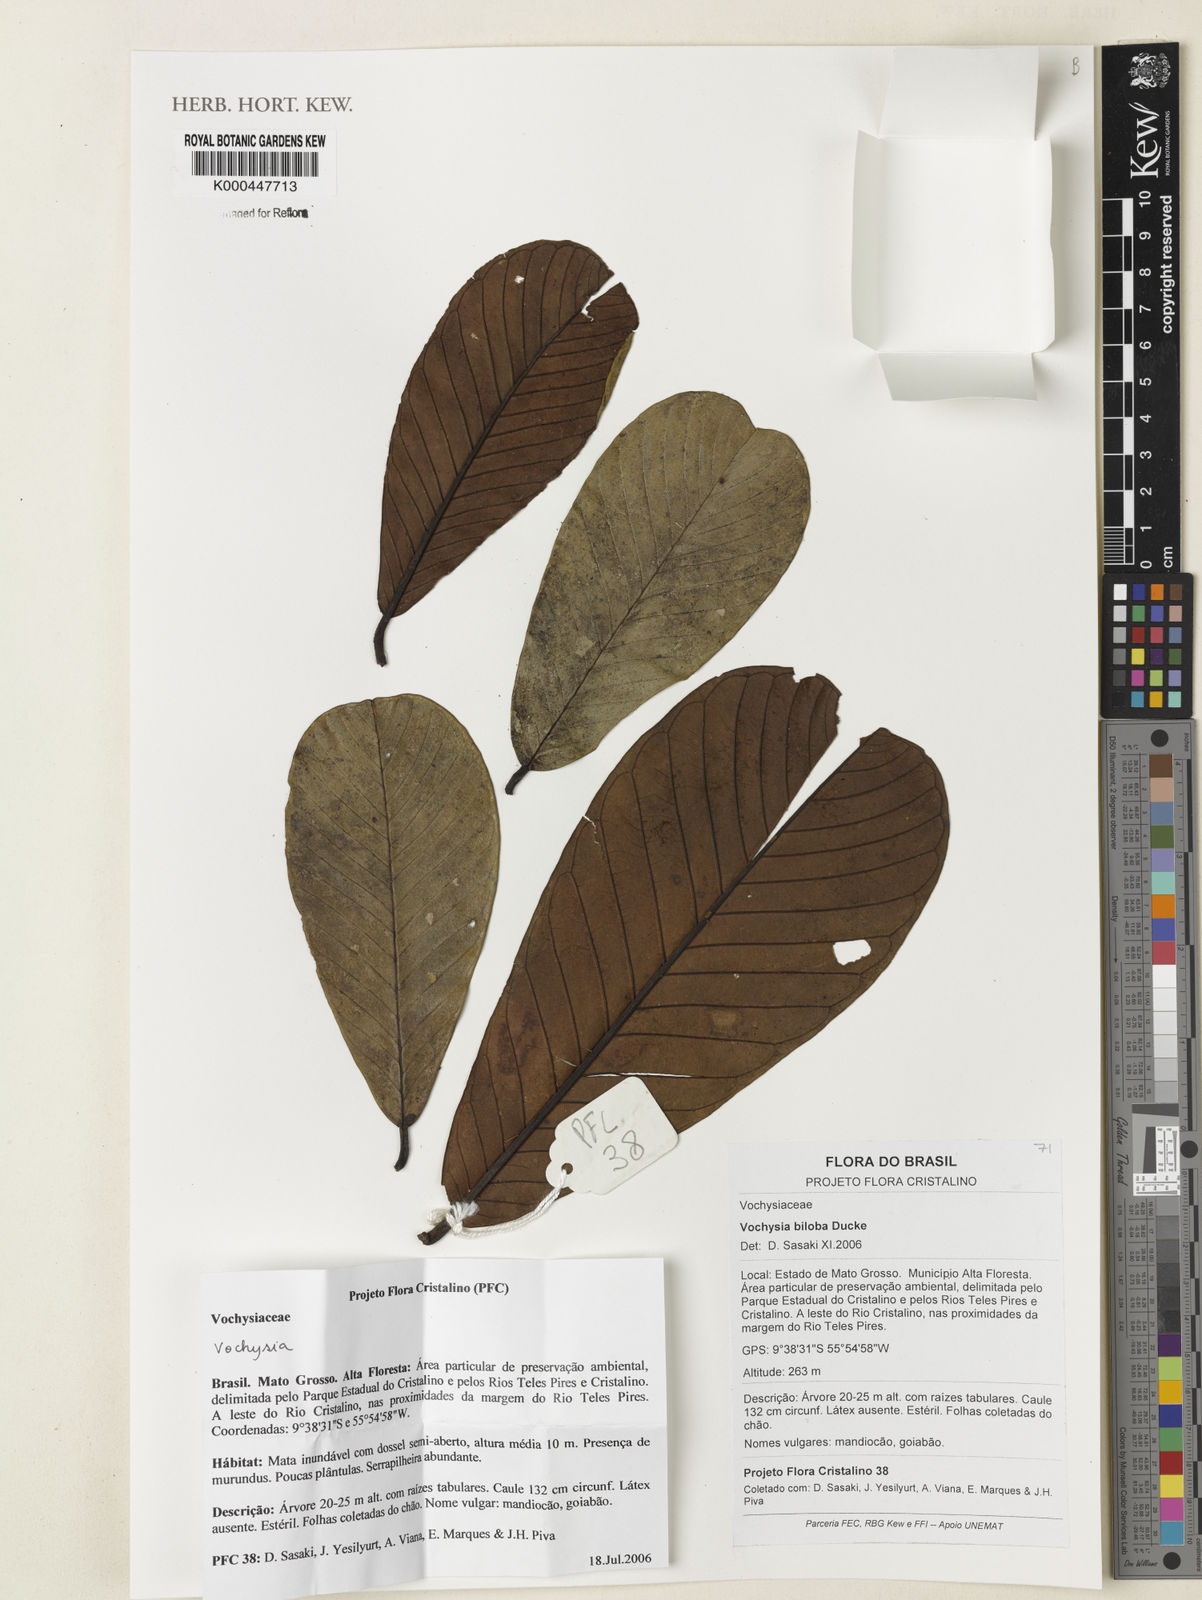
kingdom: Plantae
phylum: Tracheophyta
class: Magnoliopsida
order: Myrtales
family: Vochysiaceae
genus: Vochysia
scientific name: Vochysia biloba
